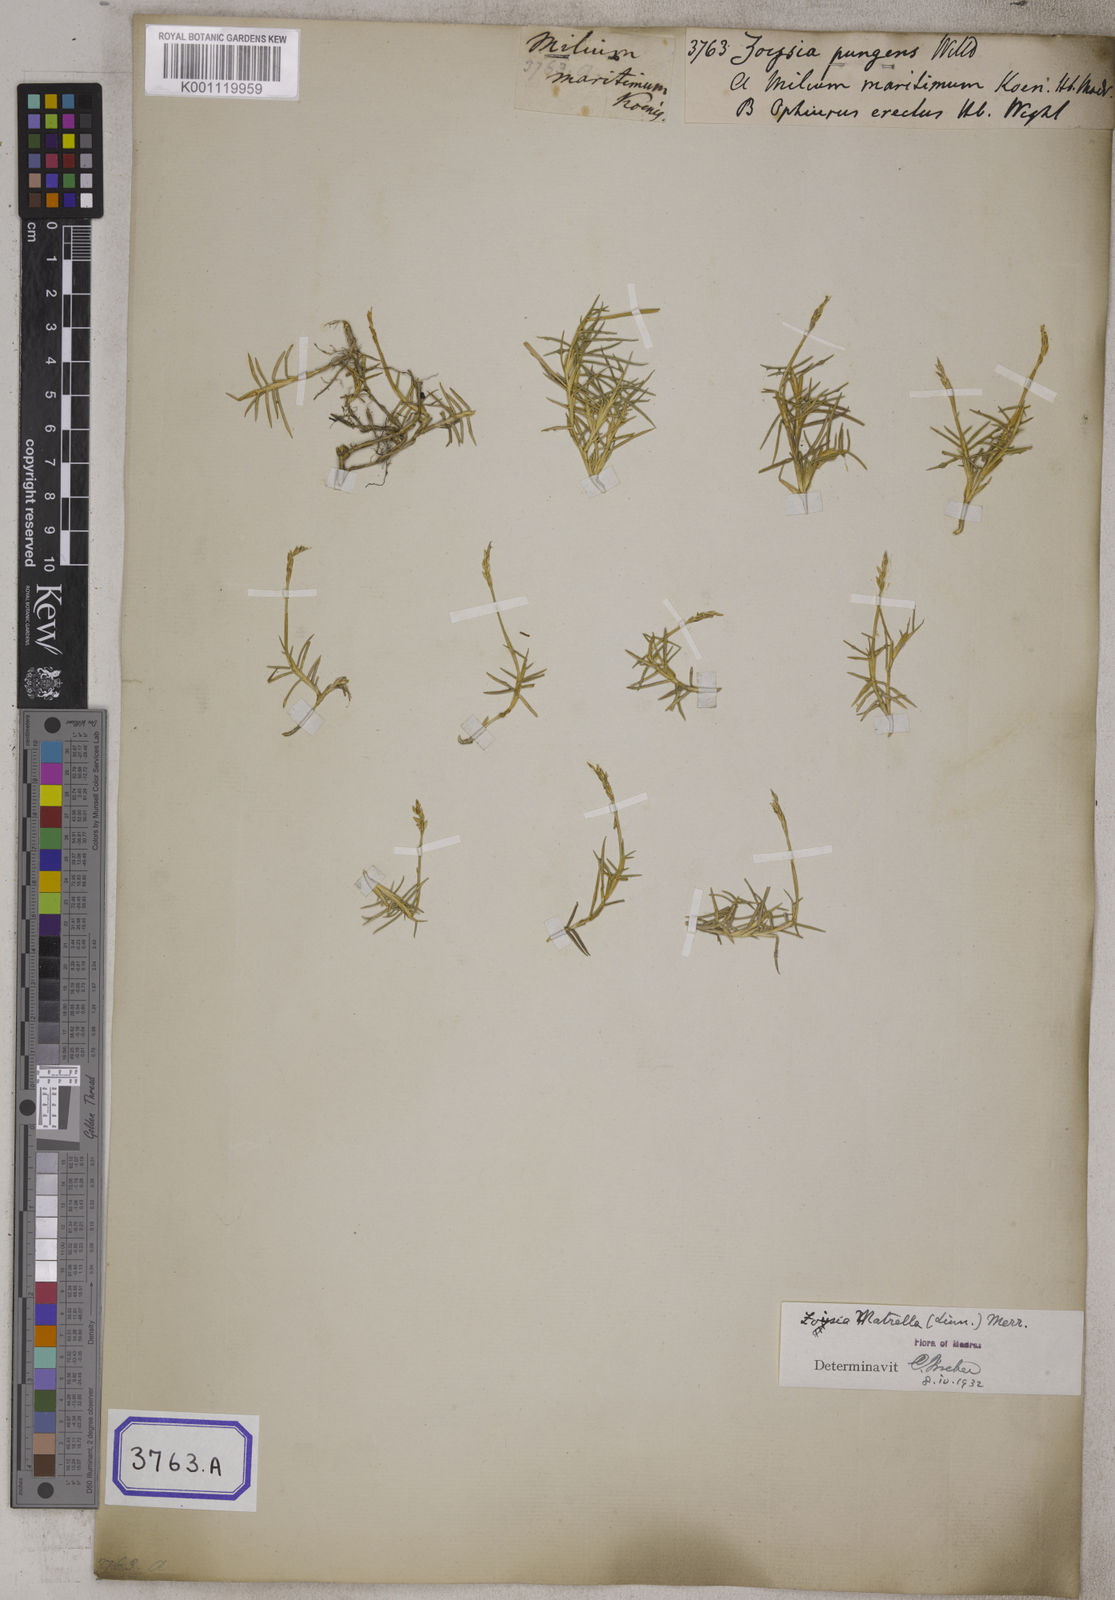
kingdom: Plantae
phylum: Tracheophyta
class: Liliopsida
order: Poales
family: Poaceae
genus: Zoysia
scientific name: Zoysia matrella
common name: Manila grass
